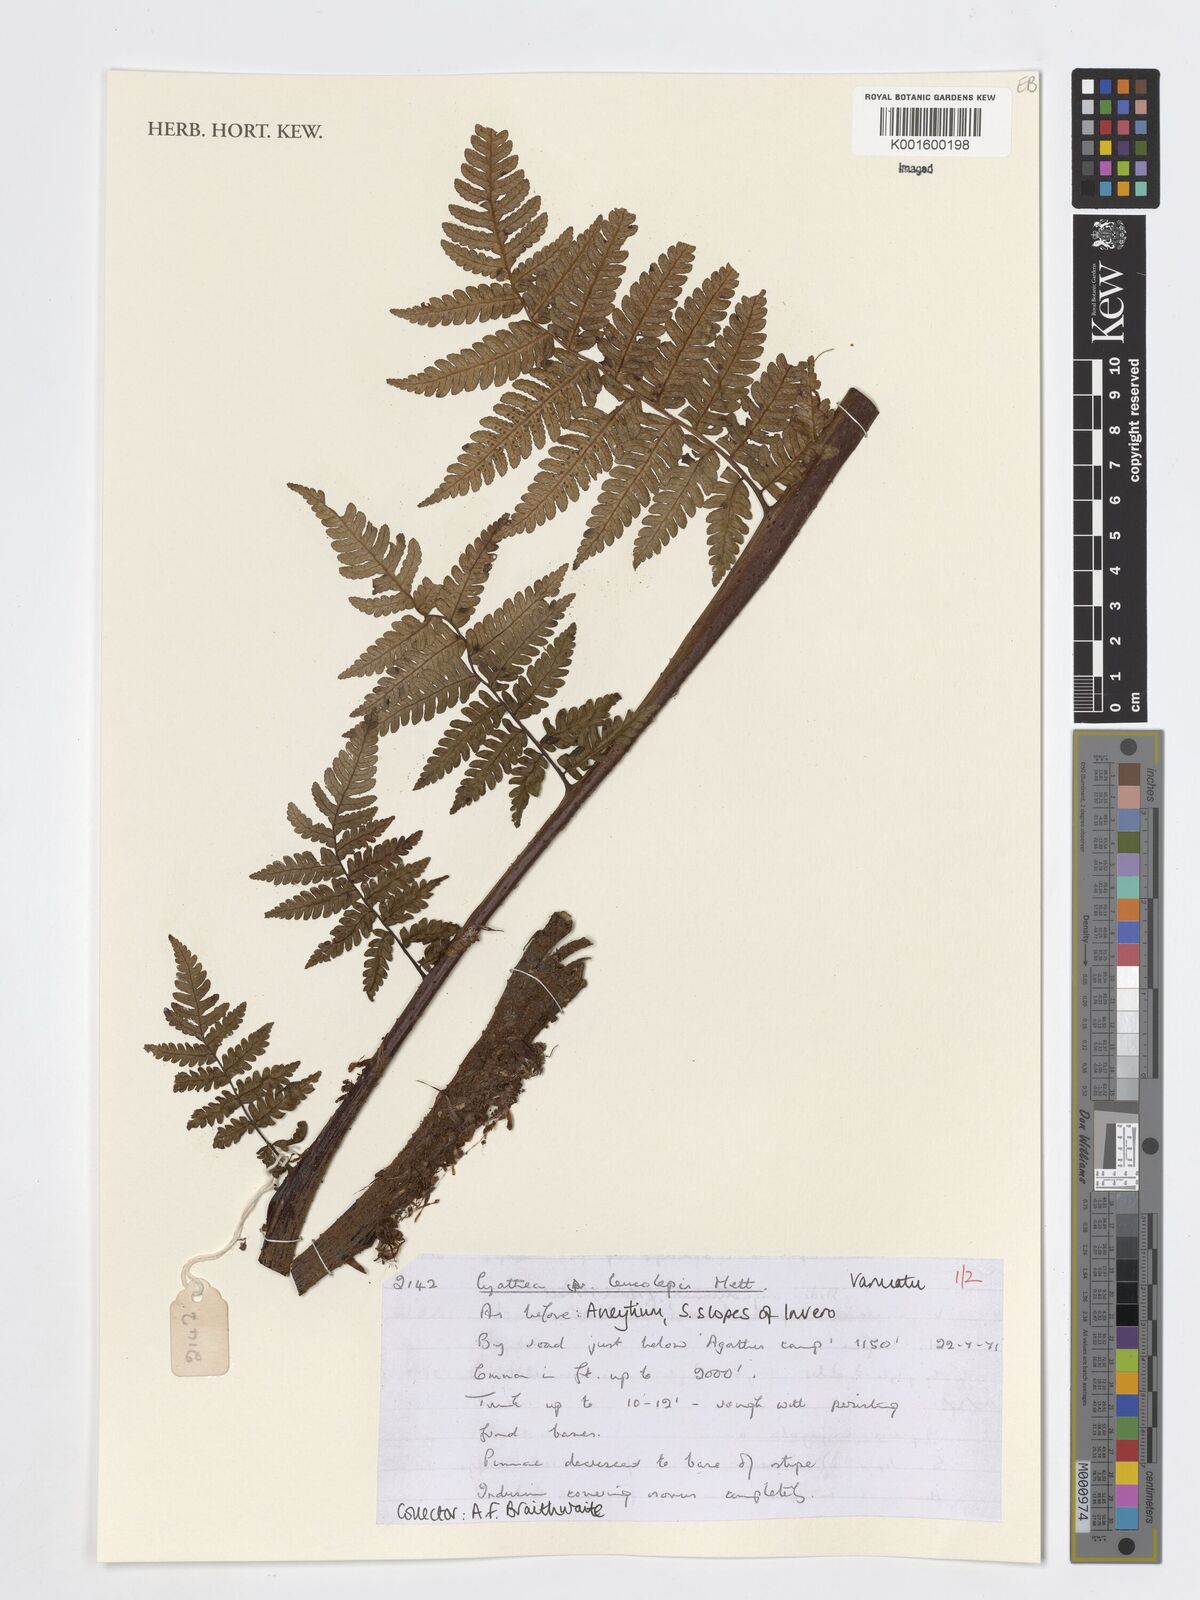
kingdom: Plantae
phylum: Tracheophyta
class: Polypodiopsida
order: Cyatheales
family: Cyatheaceae
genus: Sphaeropteris
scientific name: Sphaeropteris leucolepis
